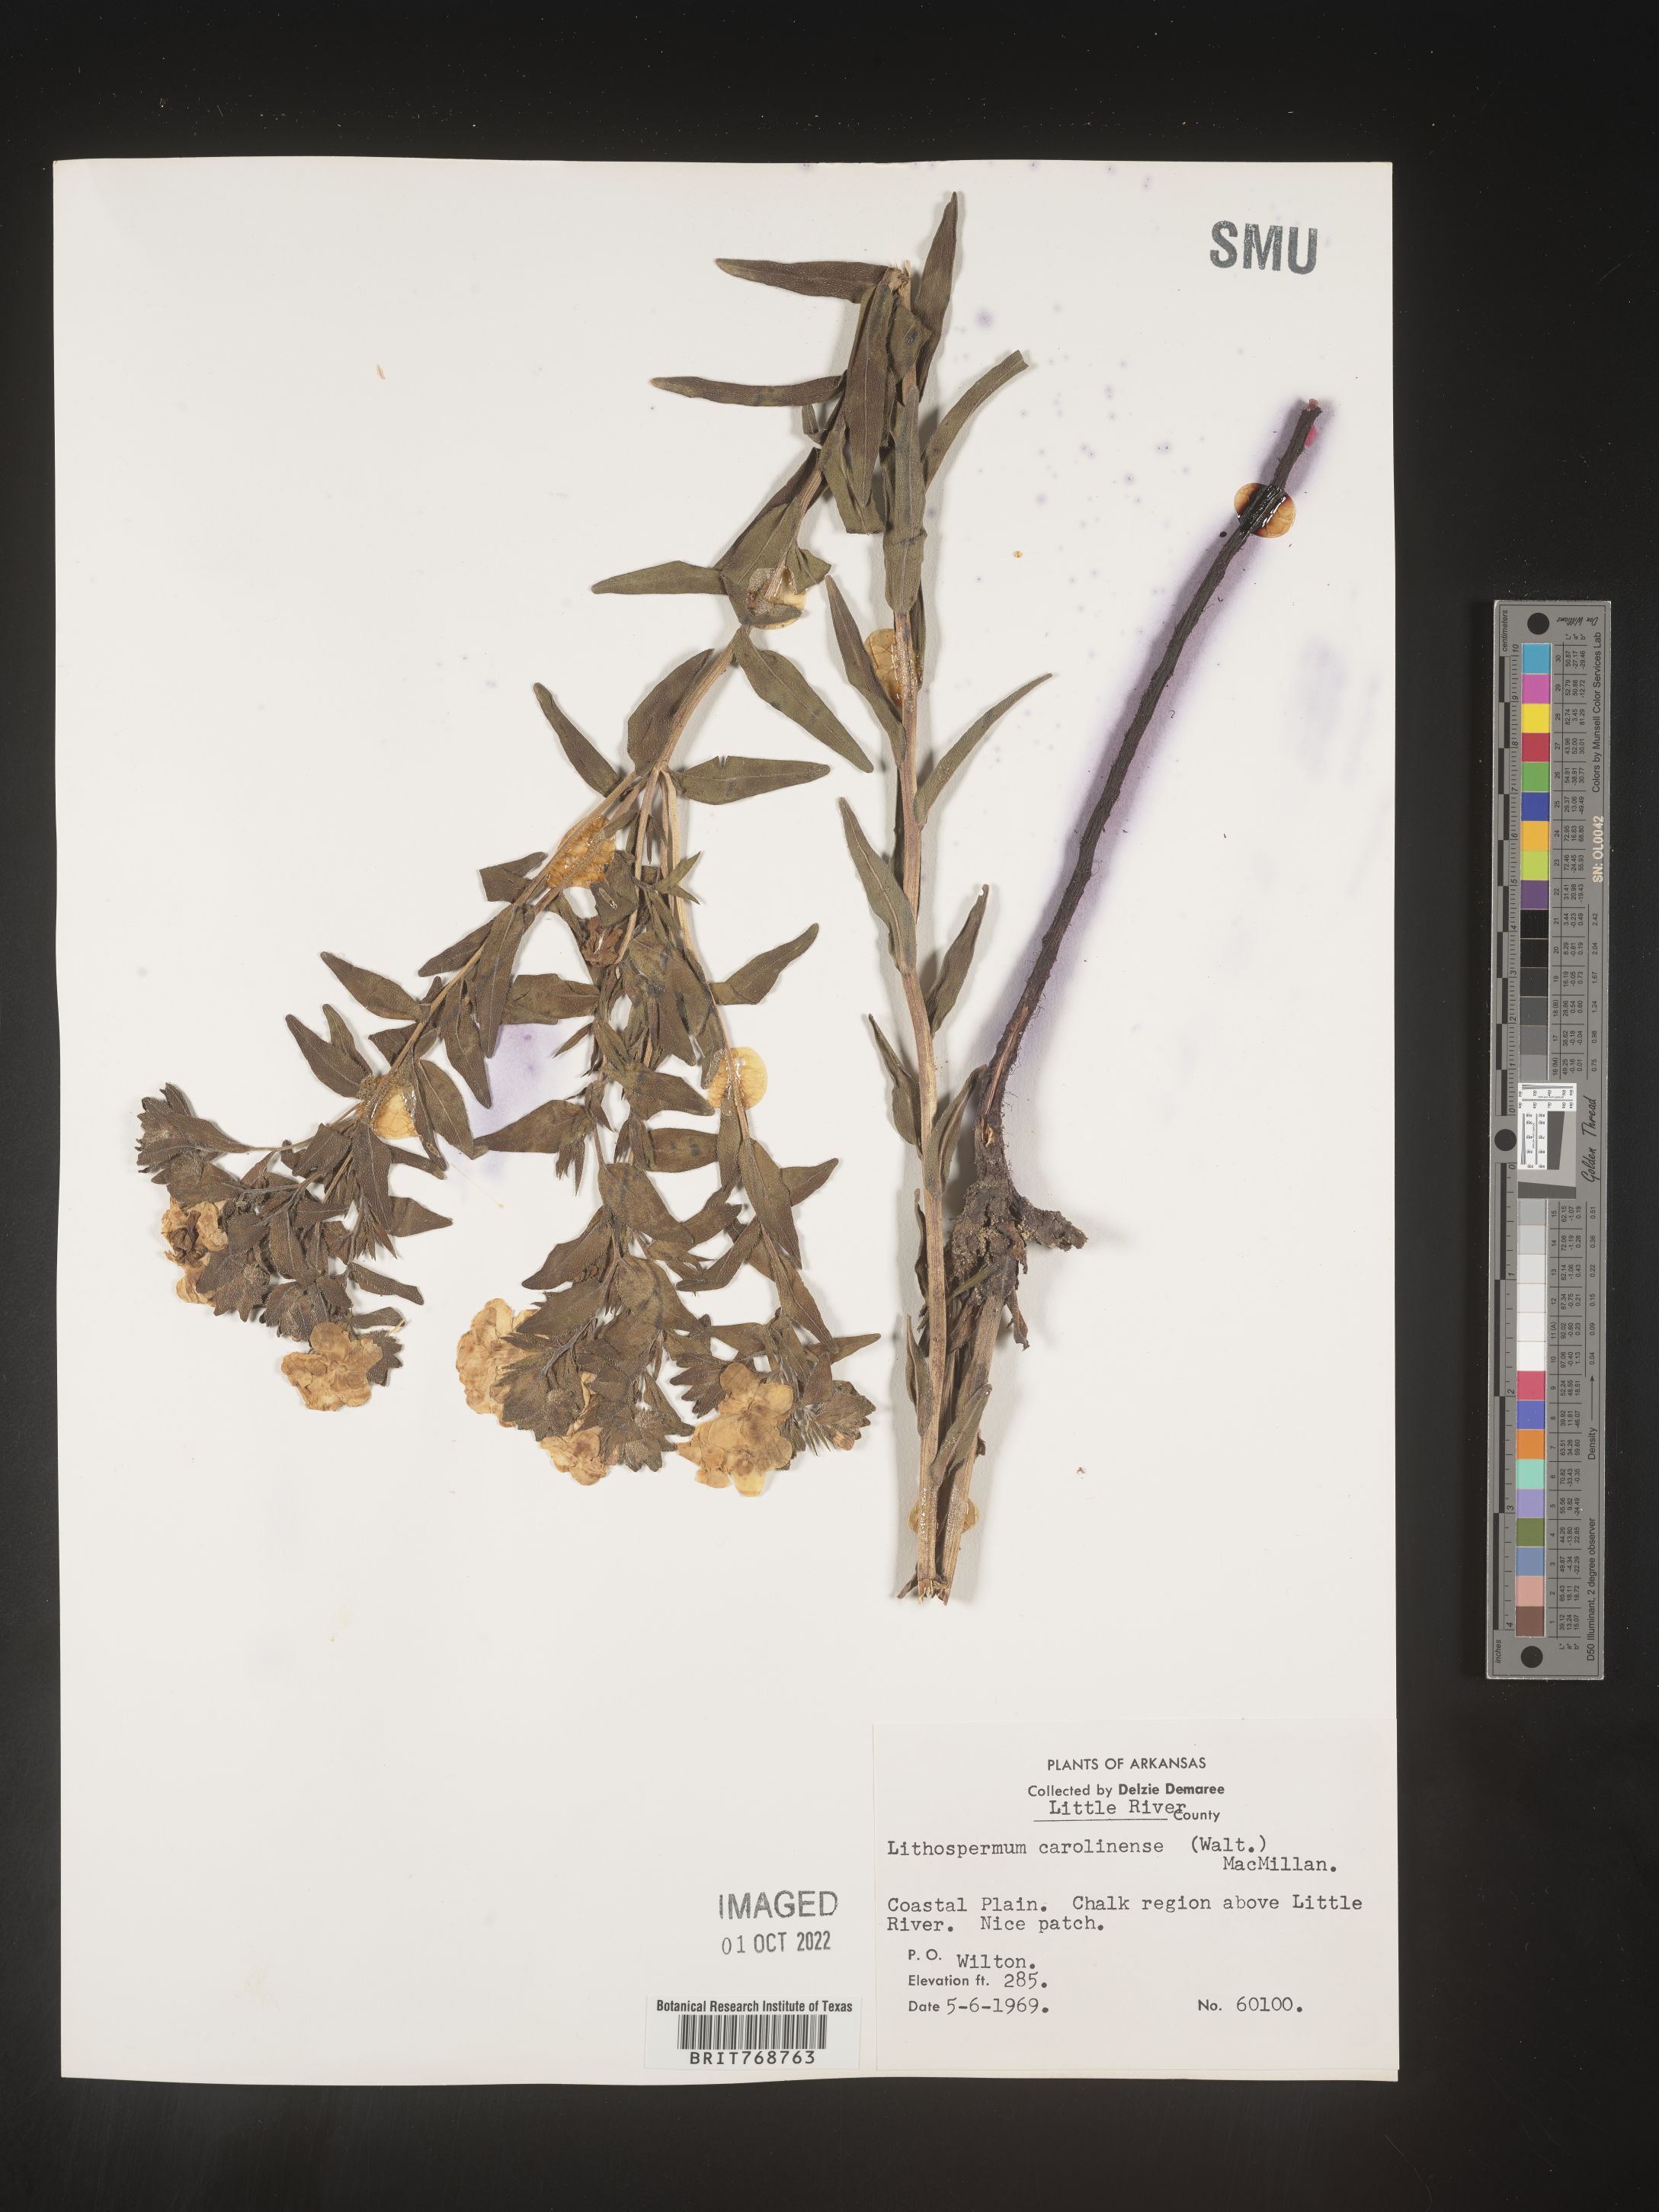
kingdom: Plantae
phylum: Tracheophyta
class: Magnoliopsida
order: Boraginales
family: Boraginaceae
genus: Lithospermum
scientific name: Lithospermum caroliniense
